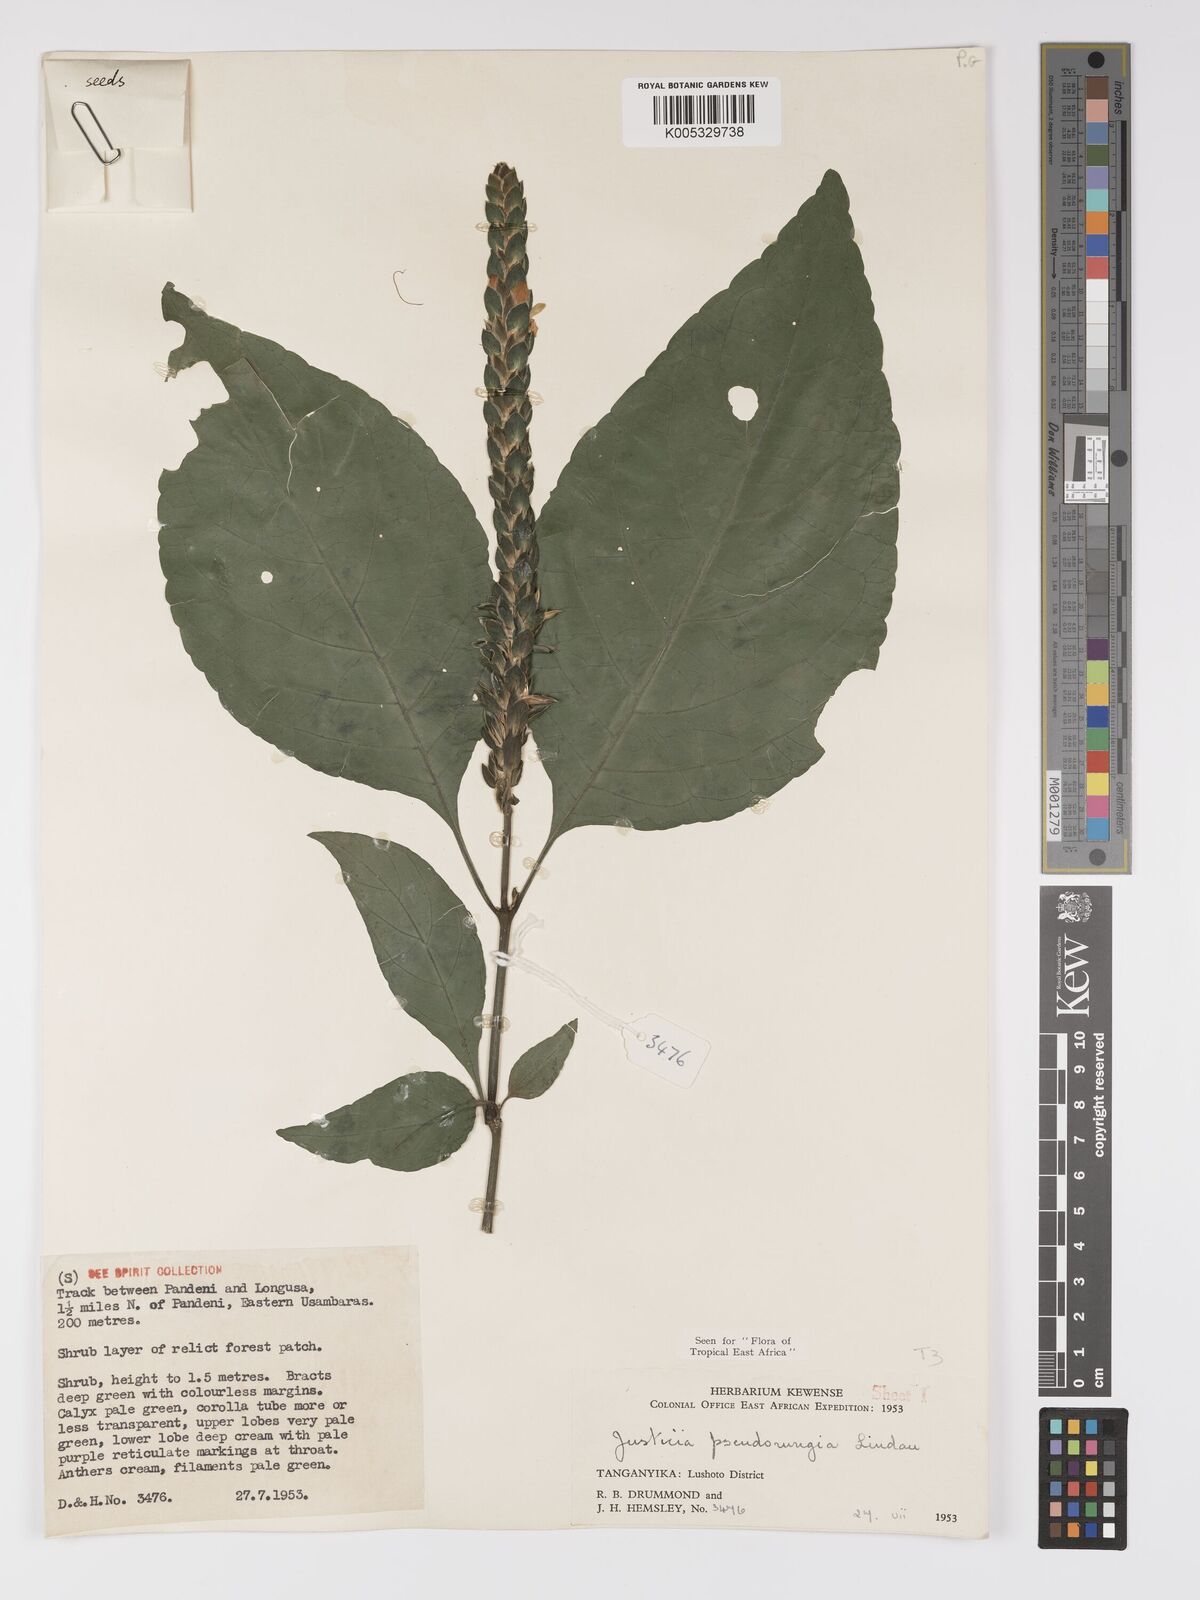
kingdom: Plantae
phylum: Tracheophyta
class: Magnoliopsida
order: Lamiales
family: Acanthaceae
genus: Justicia
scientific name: Justicia pseudorungia
